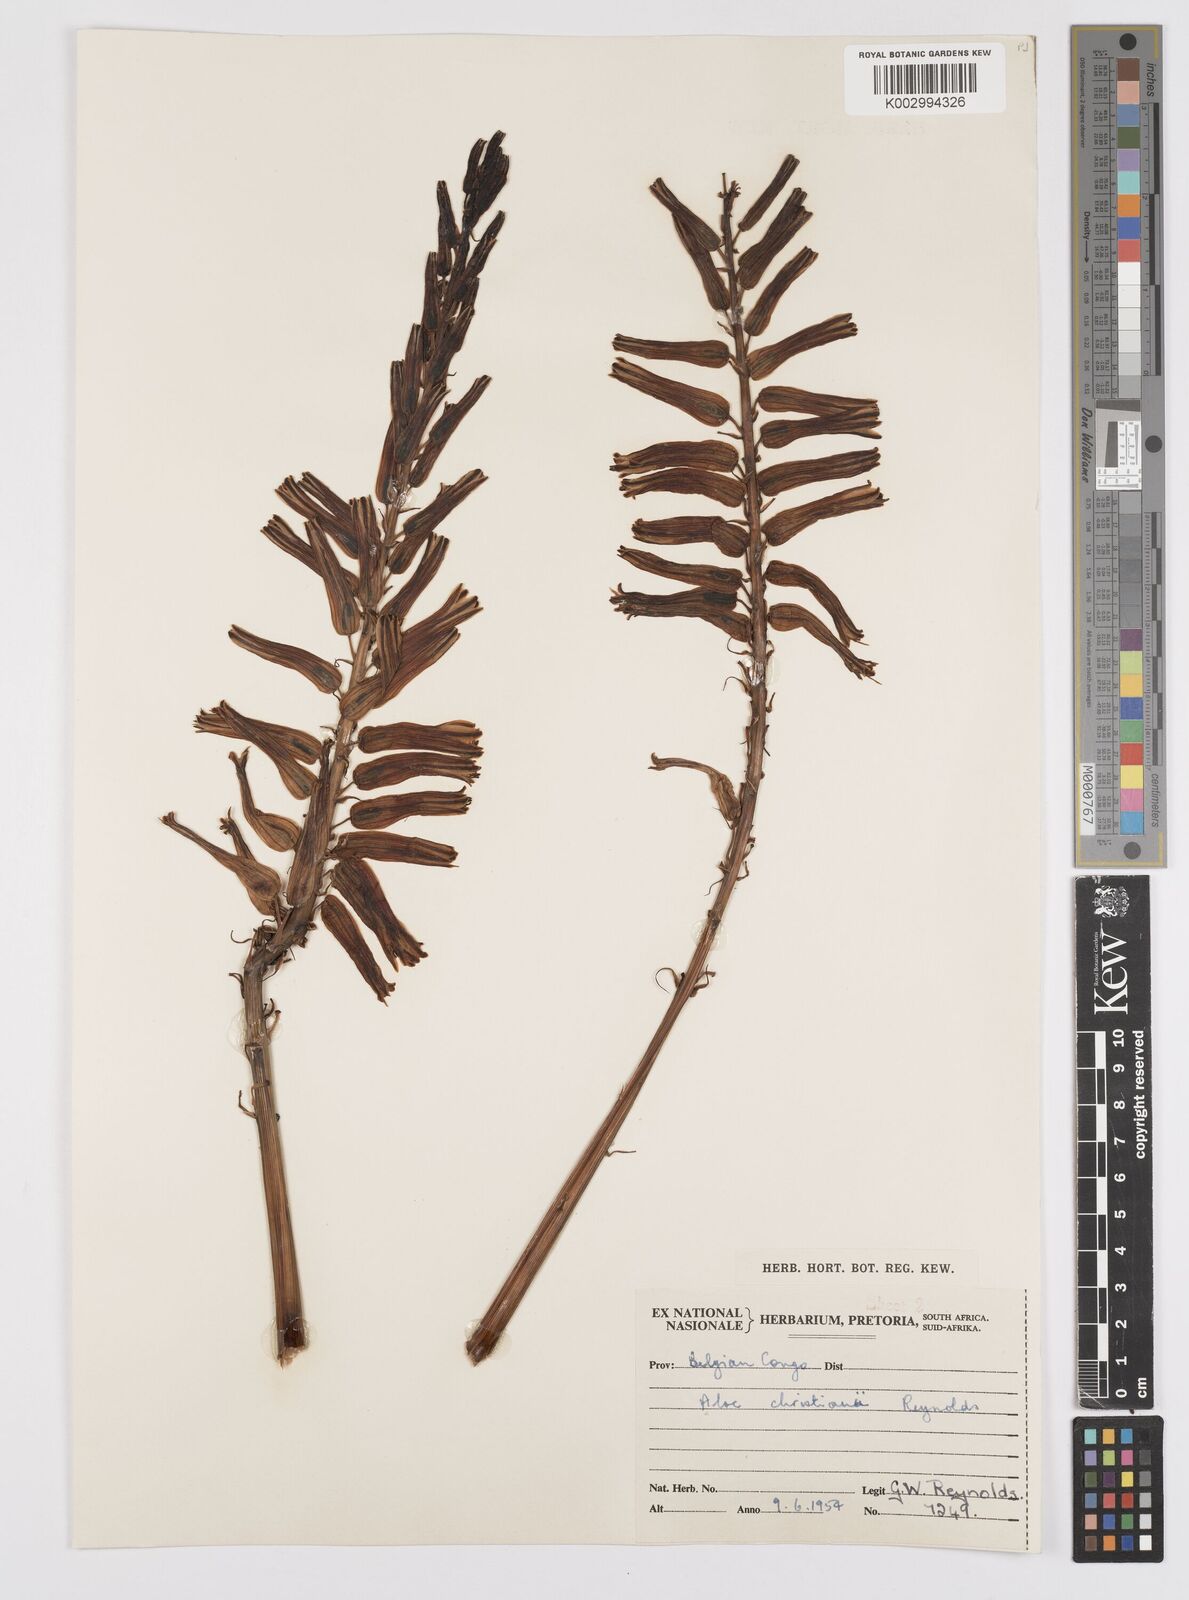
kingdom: Plantae
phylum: Tracheophyta
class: Liliopsida
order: Asparagales
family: Asphodelaceae
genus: Aloe
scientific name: Aloe christianii
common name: Basil christian's aloe
